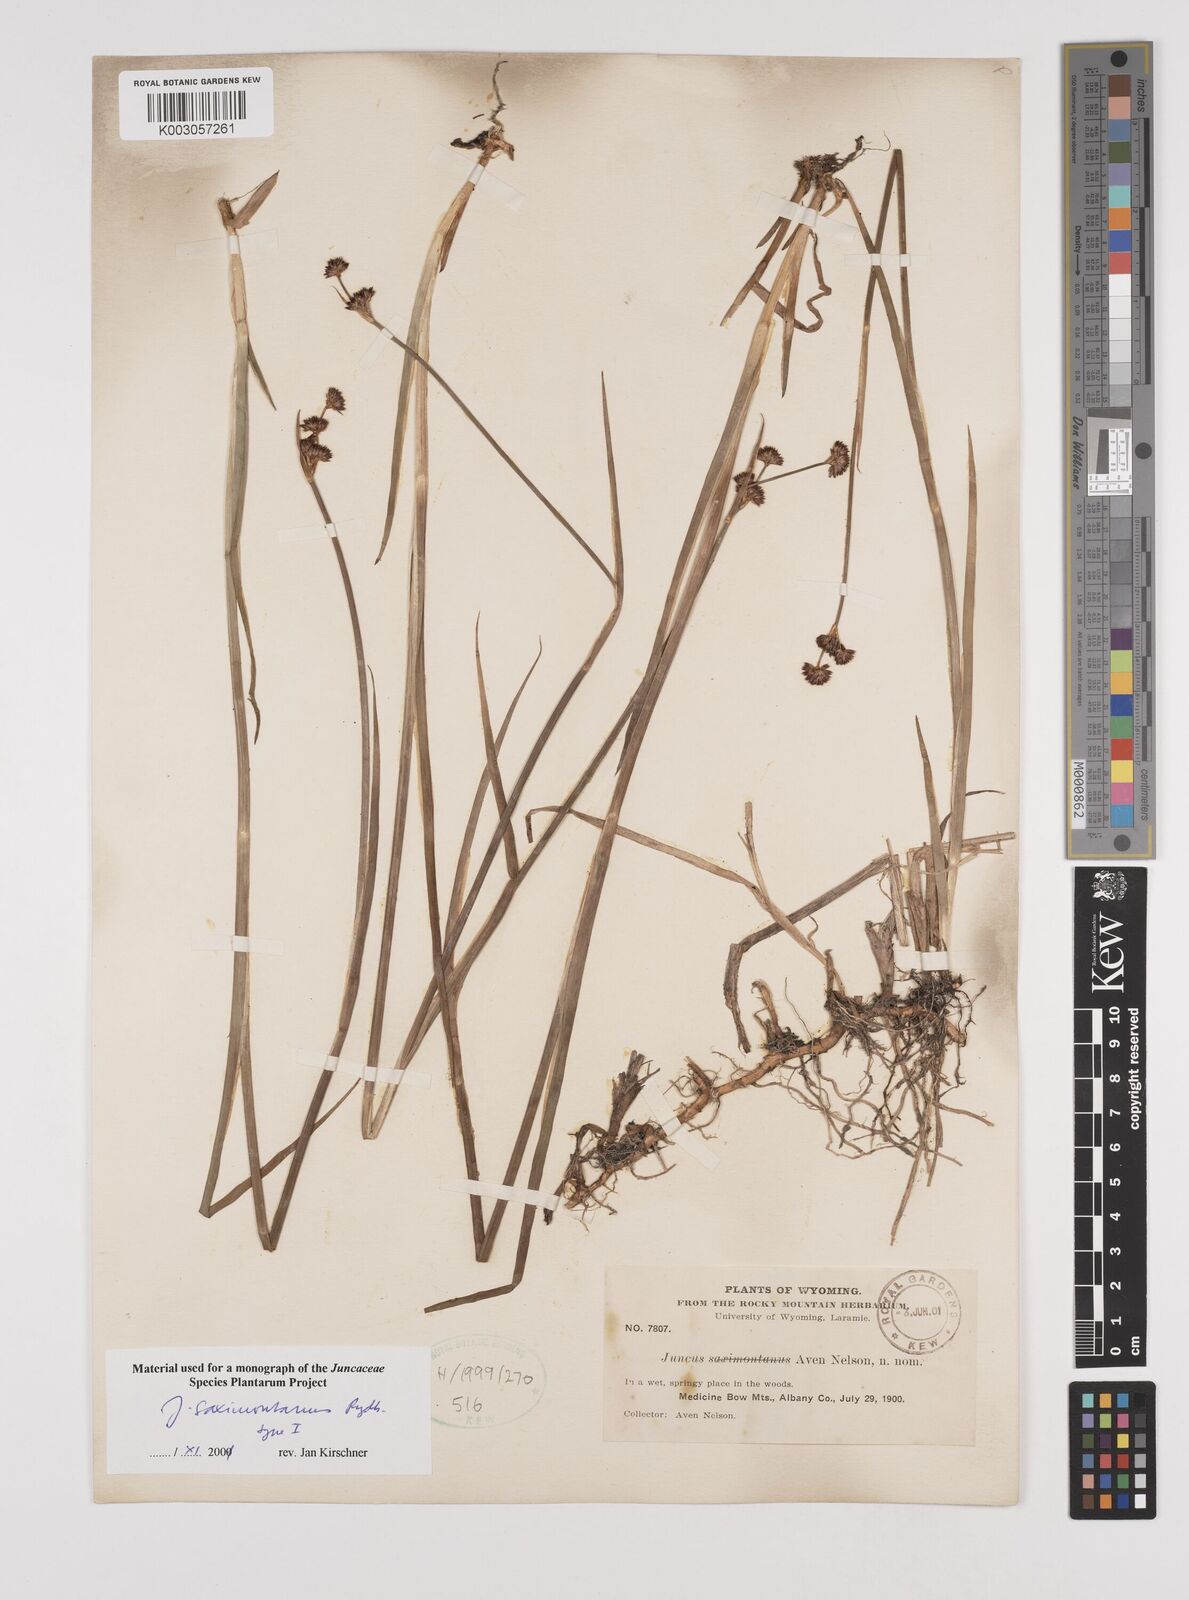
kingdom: Plantae
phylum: Tracheophyta
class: Liliopsida
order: Poales
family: Juncaceae
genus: Juncus
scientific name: Juncus xiphioides
